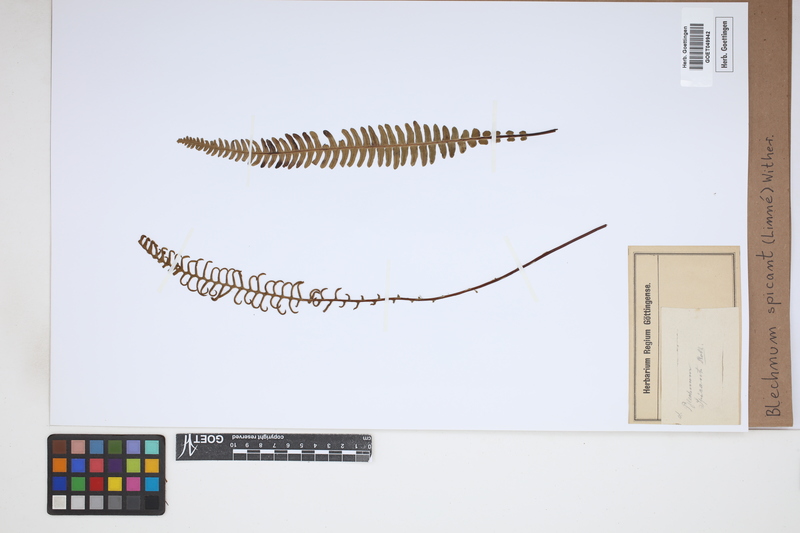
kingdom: Plantae
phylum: Tracheophyta
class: Polypodiopsida
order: Polypodiales
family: Blechnaceae
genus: Struthiopteris
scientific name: Struthiopteris spicant
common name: Deer fern
